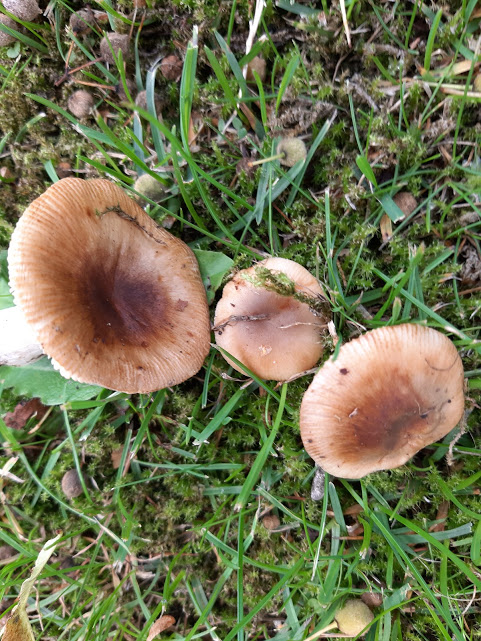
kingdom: Fungi
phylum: Basidiomycota
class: Agaricomycetes
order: Russulales
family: Russulaceae
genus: Russula
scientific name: Russula recondita
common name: mild kam-skørhat
